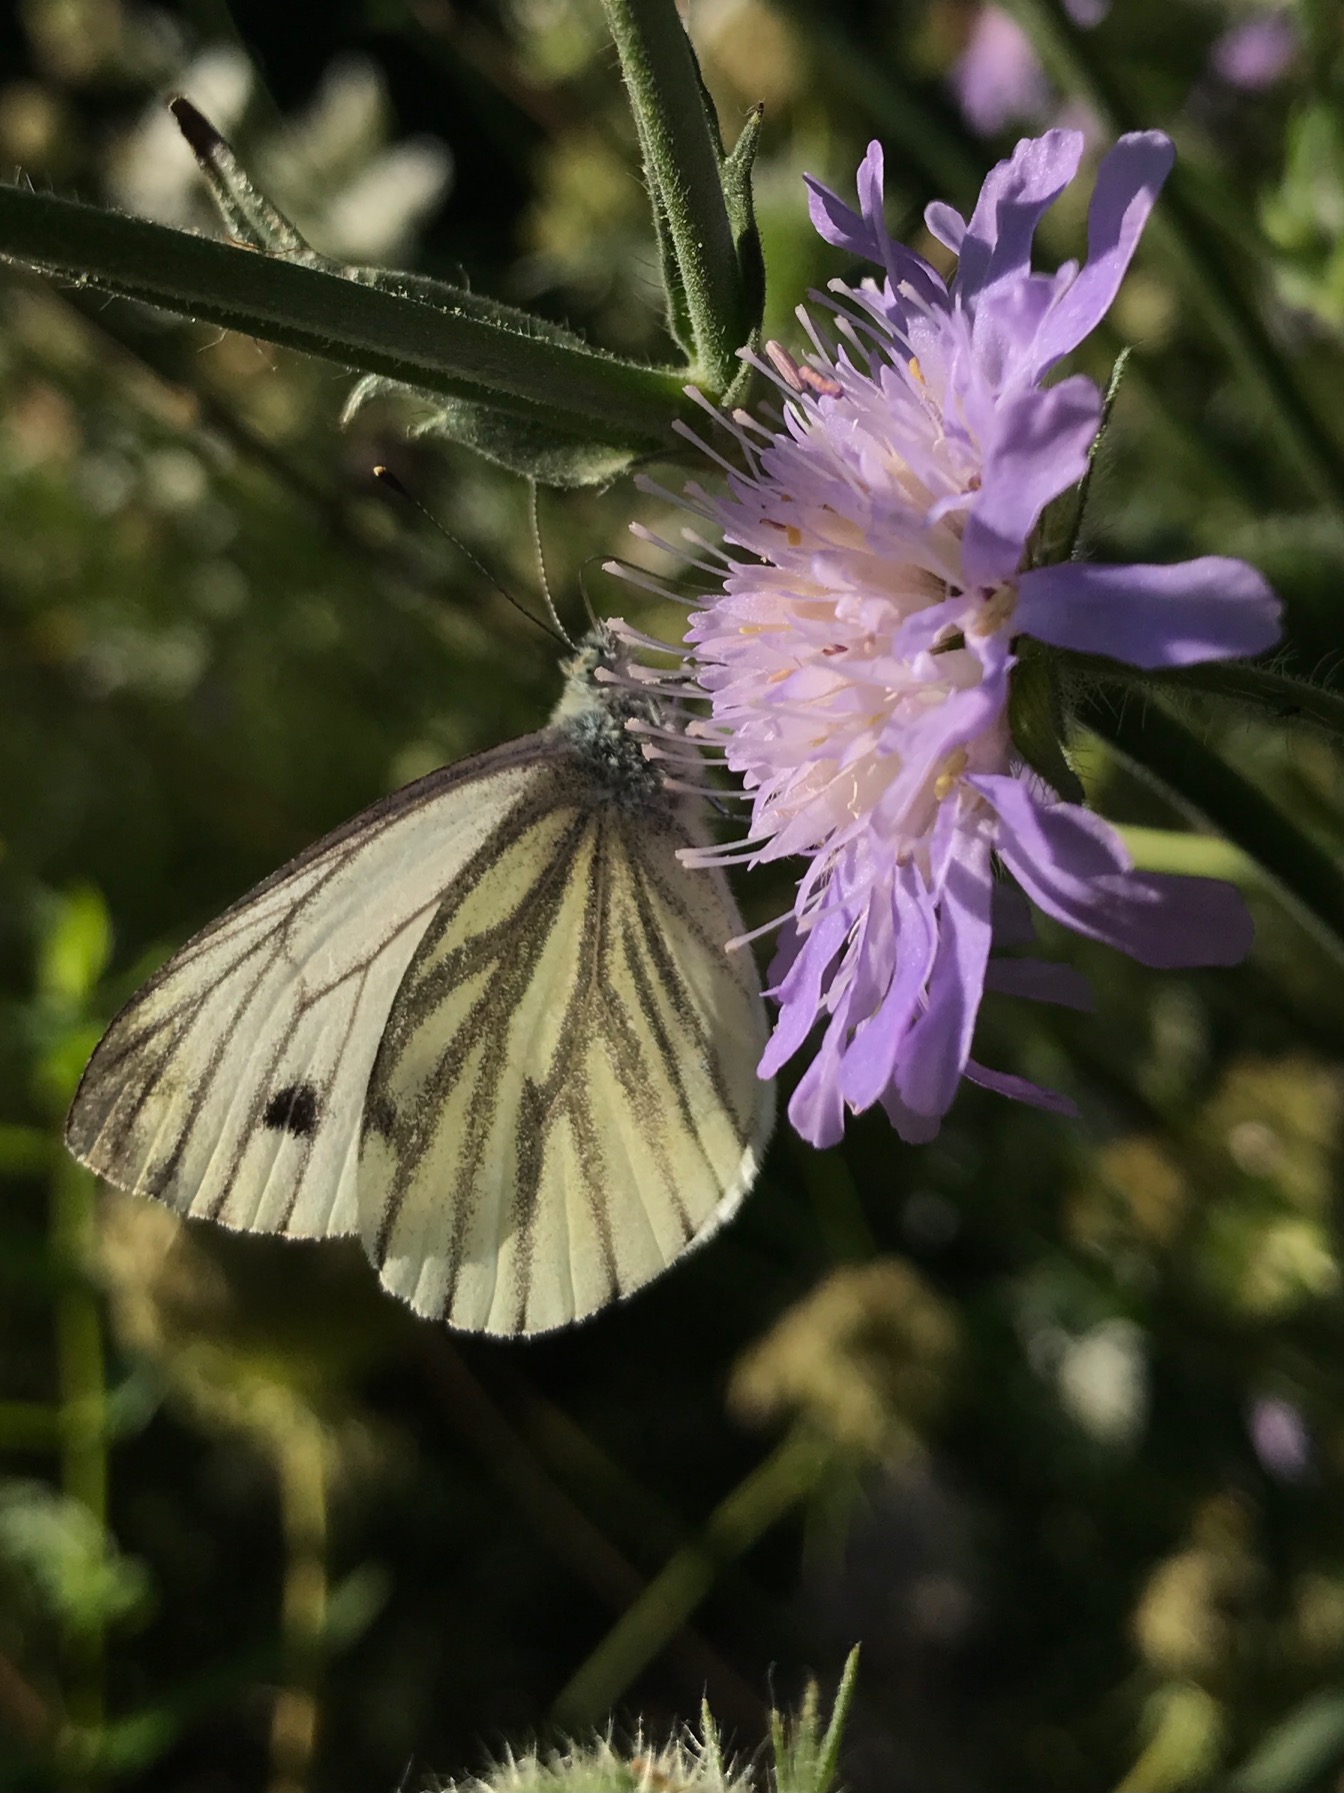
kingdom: Animalia
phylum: Arthropoda
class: Insecta
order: Lepidoptera
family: Pieridae
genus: Pieris
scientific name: Pieris napi
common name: Grønåret kålsommerfugl
